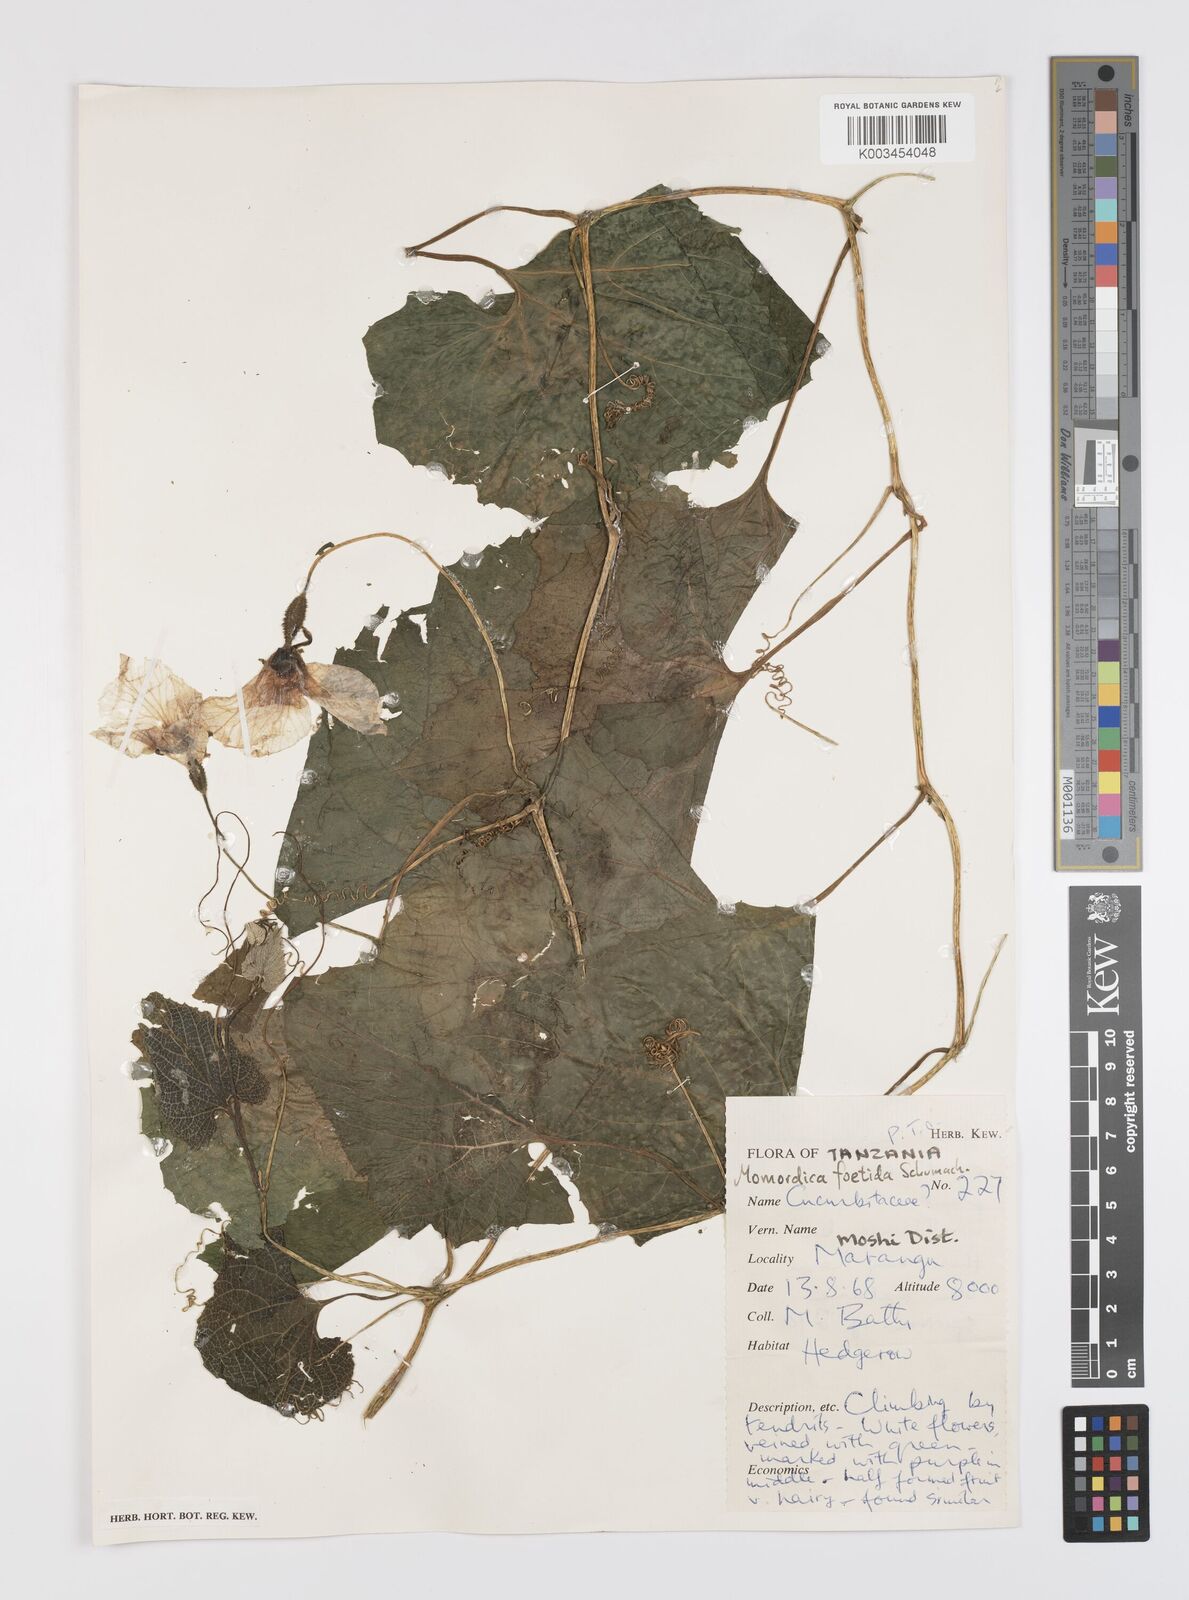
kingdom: Plantae
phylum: Tracheophyta
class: Magnoliopsida
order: Cucurbitales
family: Cucurbitaceae
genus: Momordica
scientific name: Momordica foetida
